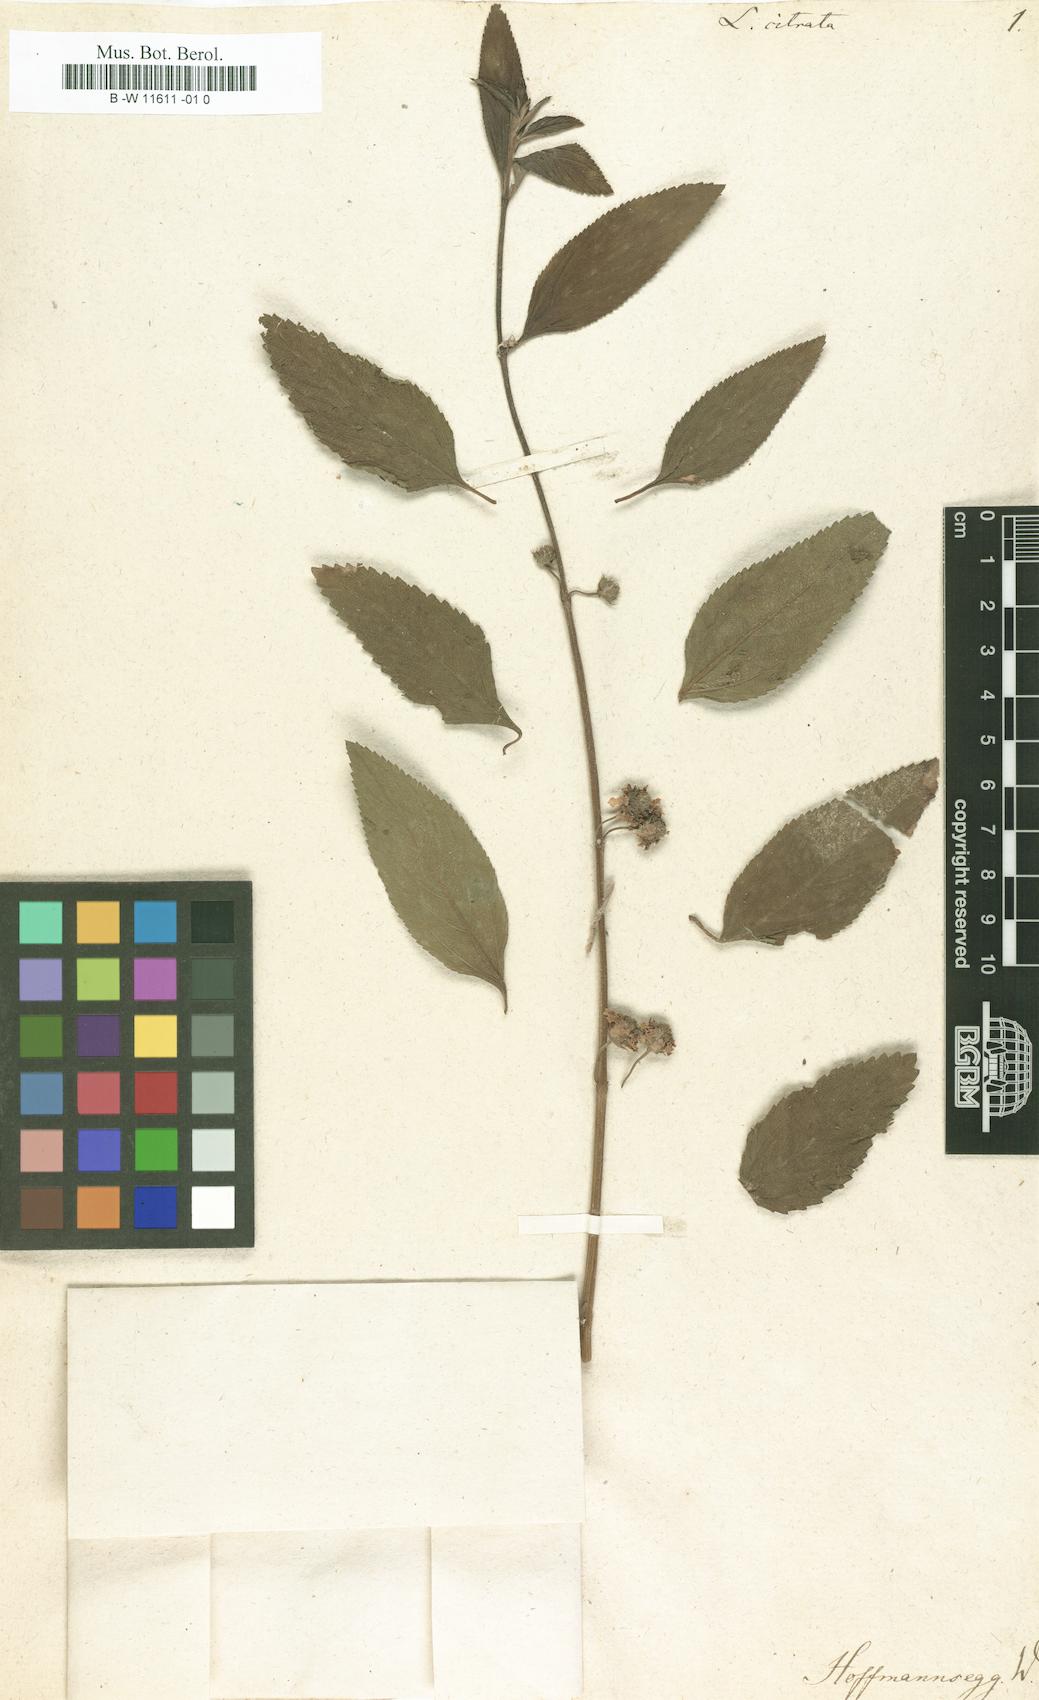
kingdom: Plantae
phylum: Tracheophyta
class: Magnoliopsida
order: Lamiales
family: Verbenaceae
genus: Lippia
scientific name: Lippia alba
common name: Bushy matgrass
